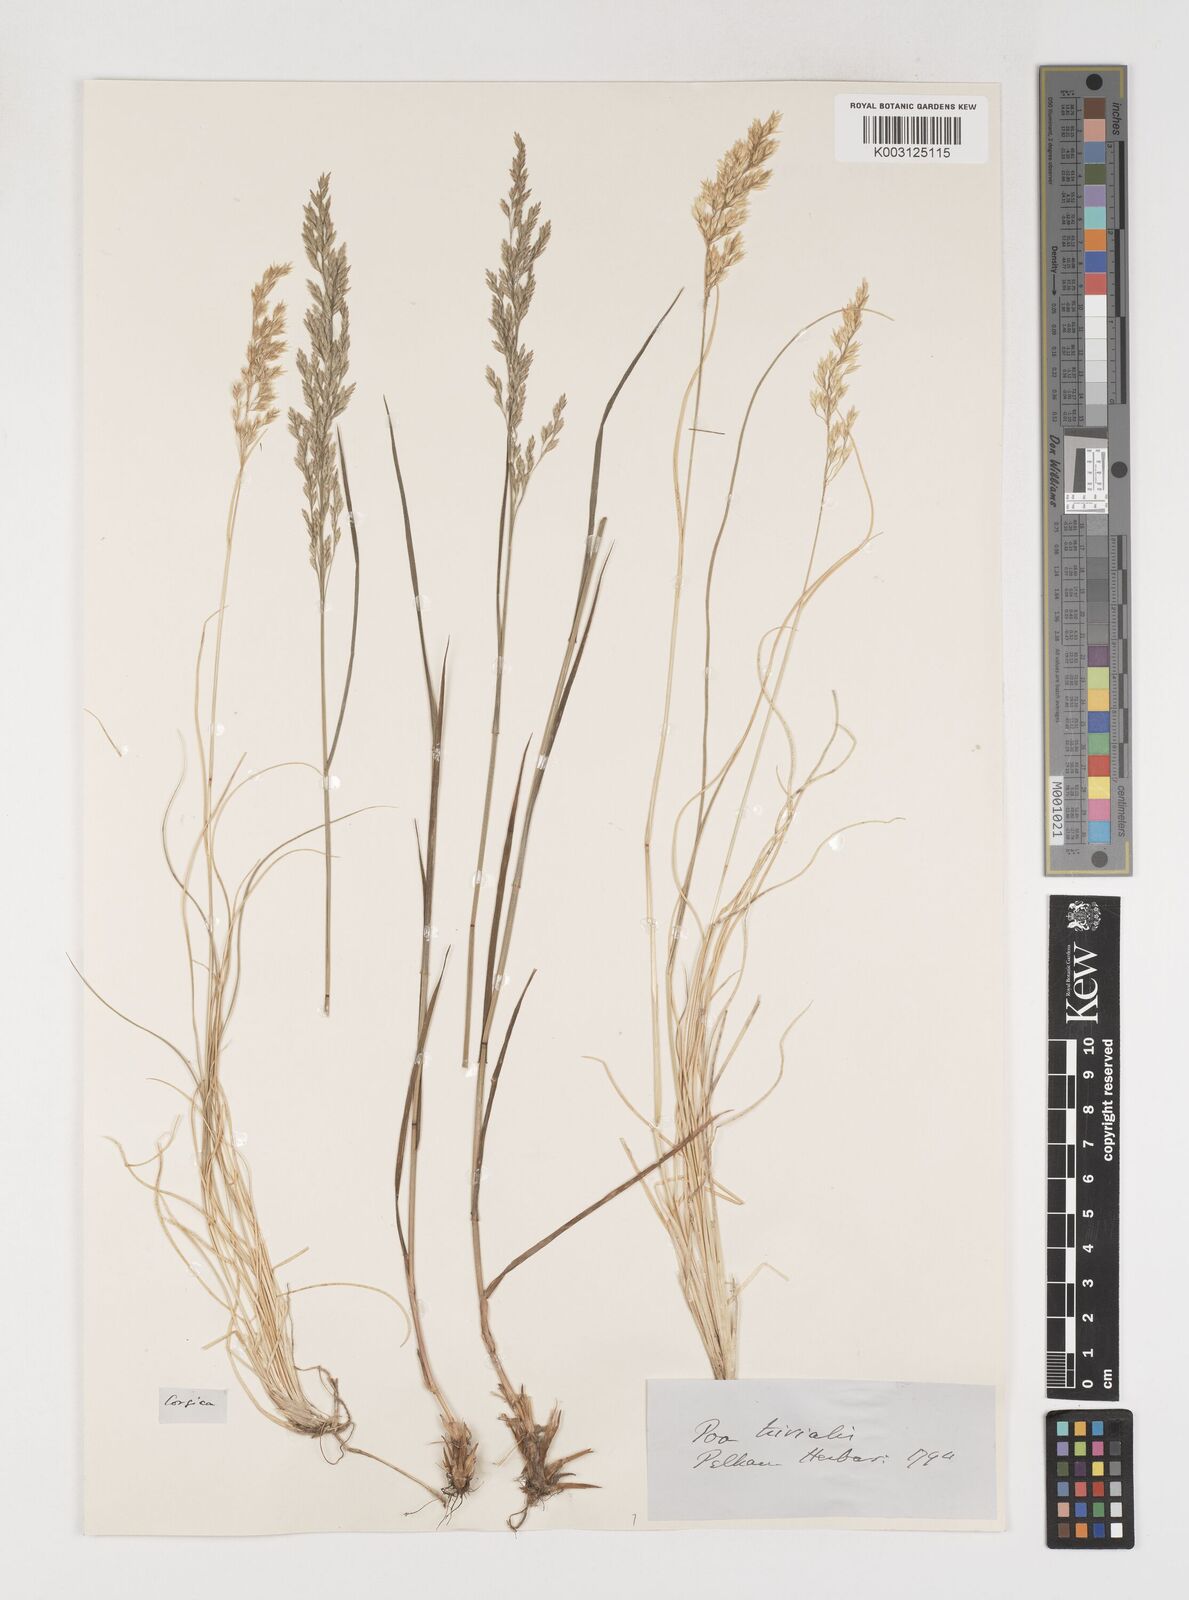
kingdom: Plantae
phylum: Tracheophyta
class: Liliopsida
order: Poales
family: Poaceae
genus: Poa
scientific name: Poa trivialis
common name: Rough bluegrass
